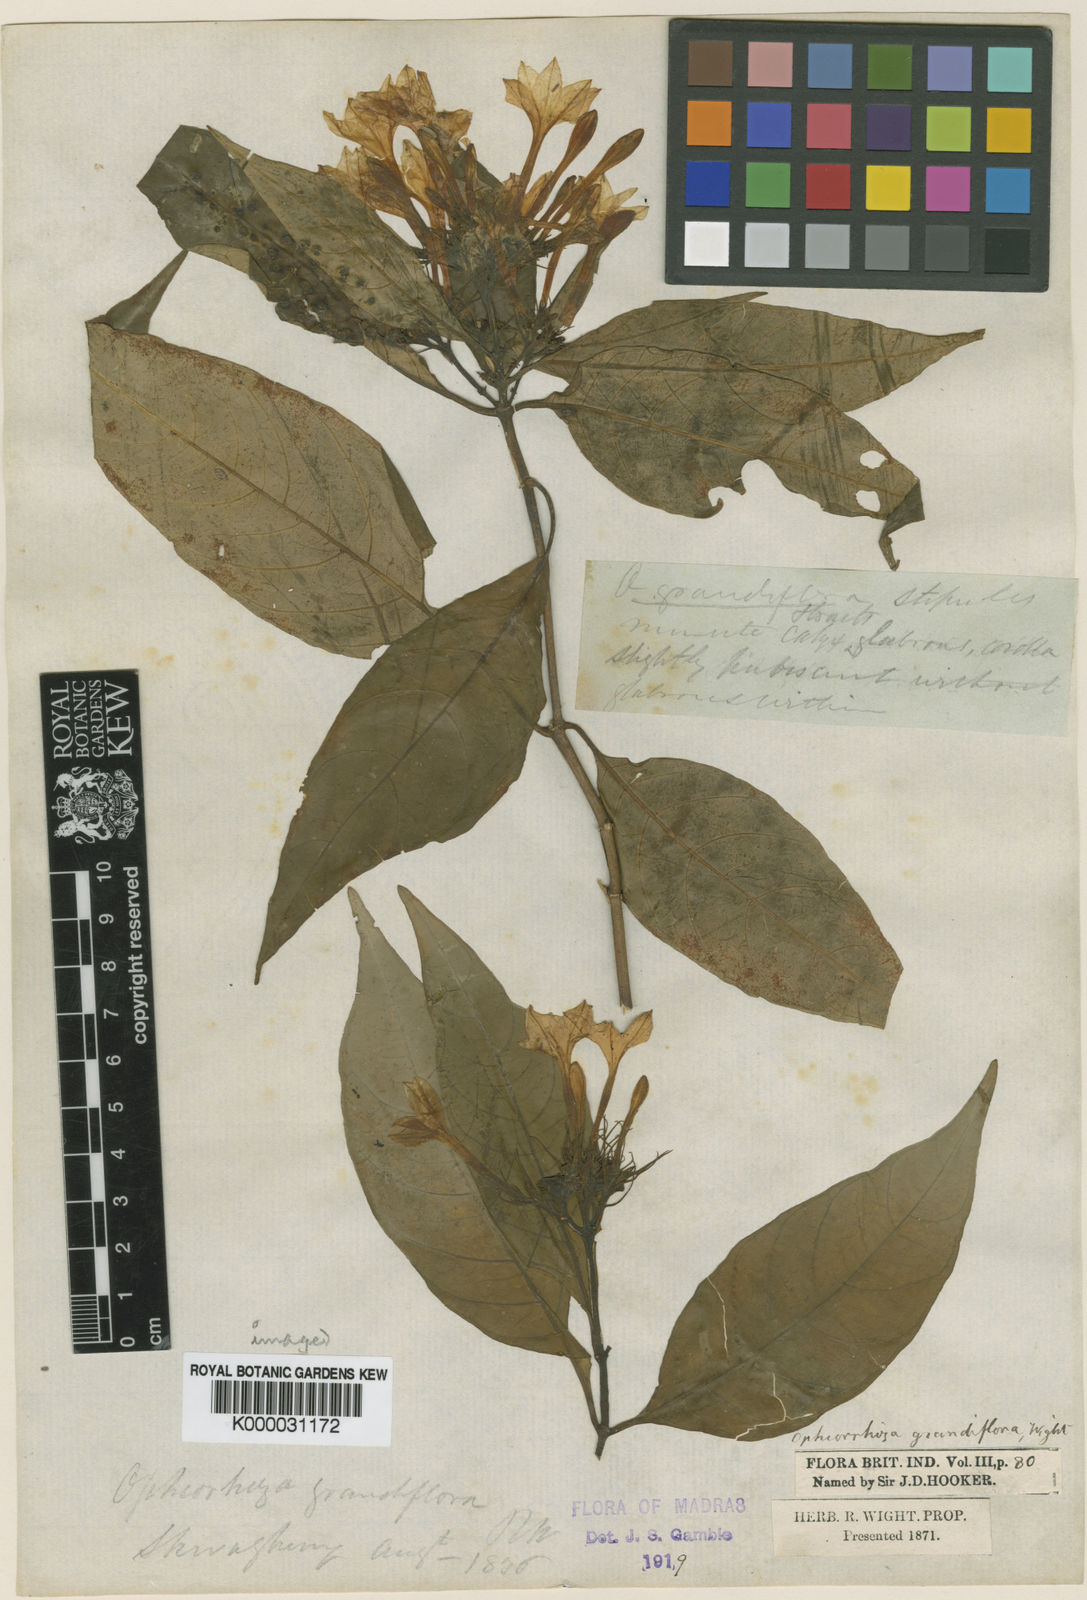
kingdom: Plantae
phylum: Tracheophyta
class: Magnoliopsida
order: Gentianales
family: Rubiaceae
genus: Ophiorrhiza
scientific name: Ophiorrhiza grandiflora
